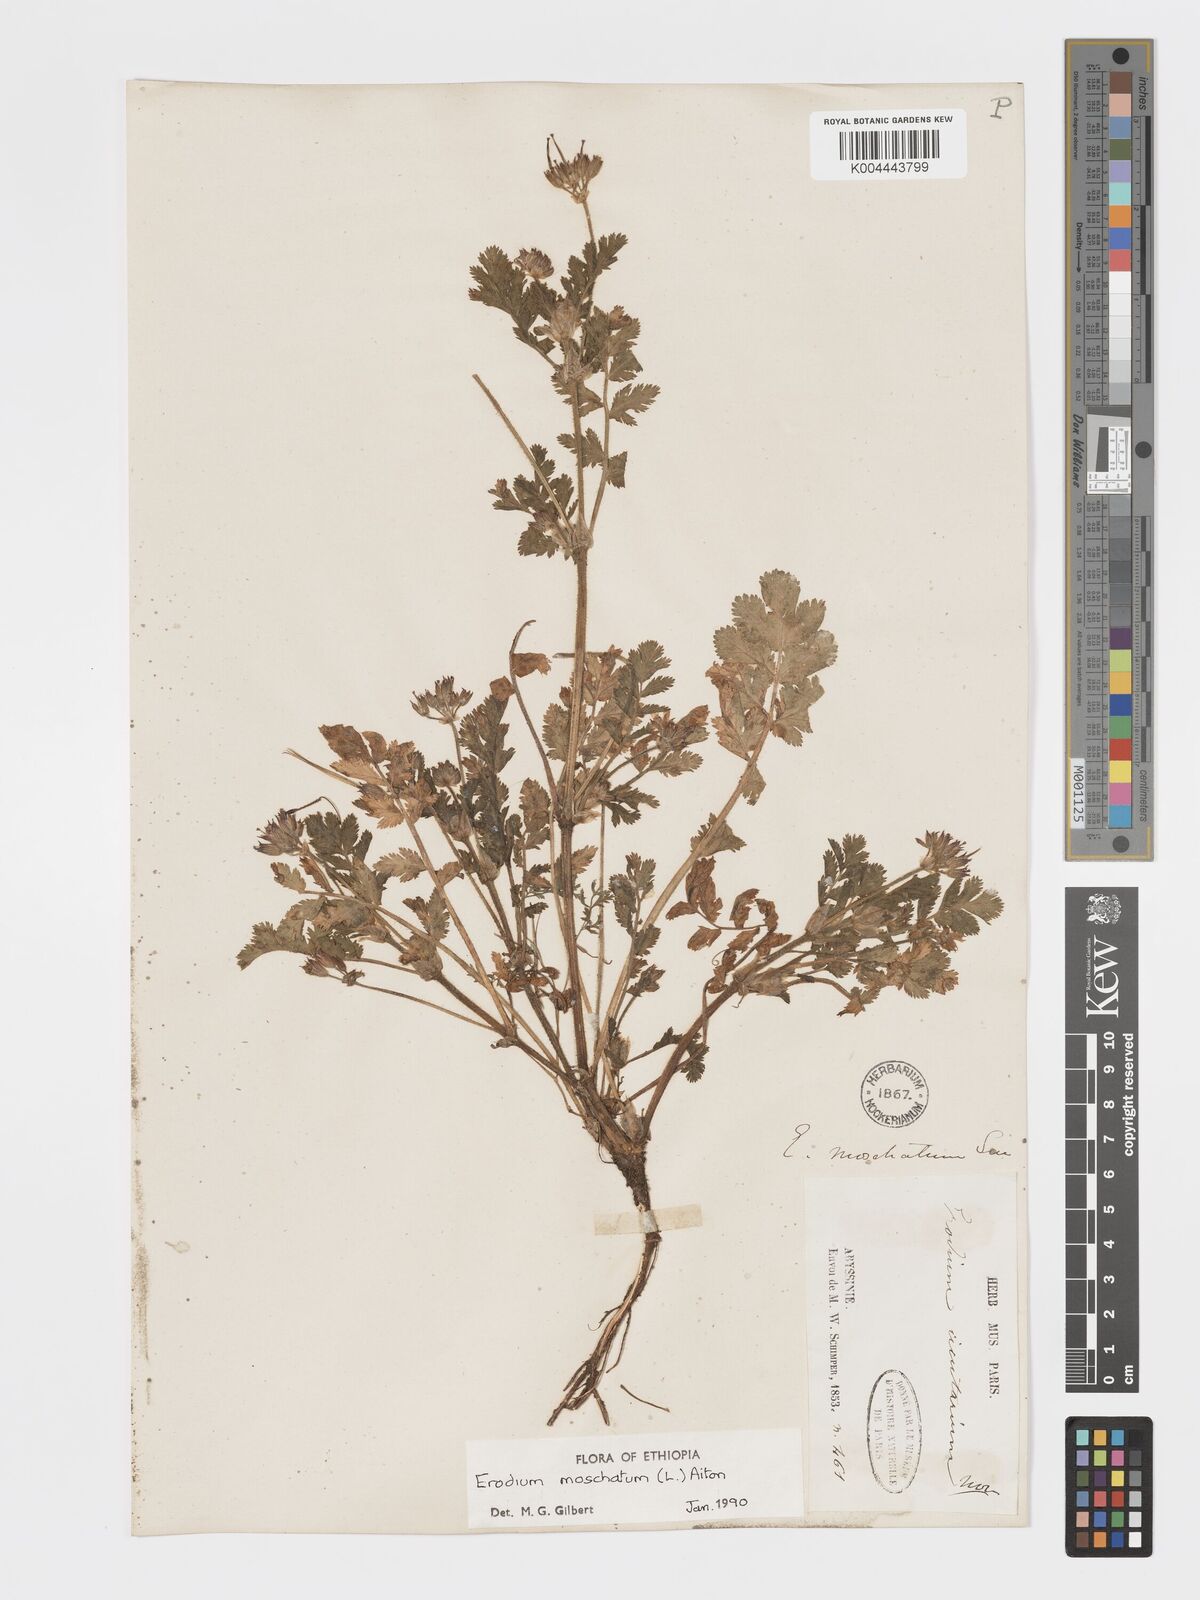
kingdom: Plantae
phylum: Tracheophyta
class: Magnoliopsida
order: Geraniales
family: Geraniaceae
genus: Erodium
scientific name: Erodium moschatum
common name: Musk stork's-bill
